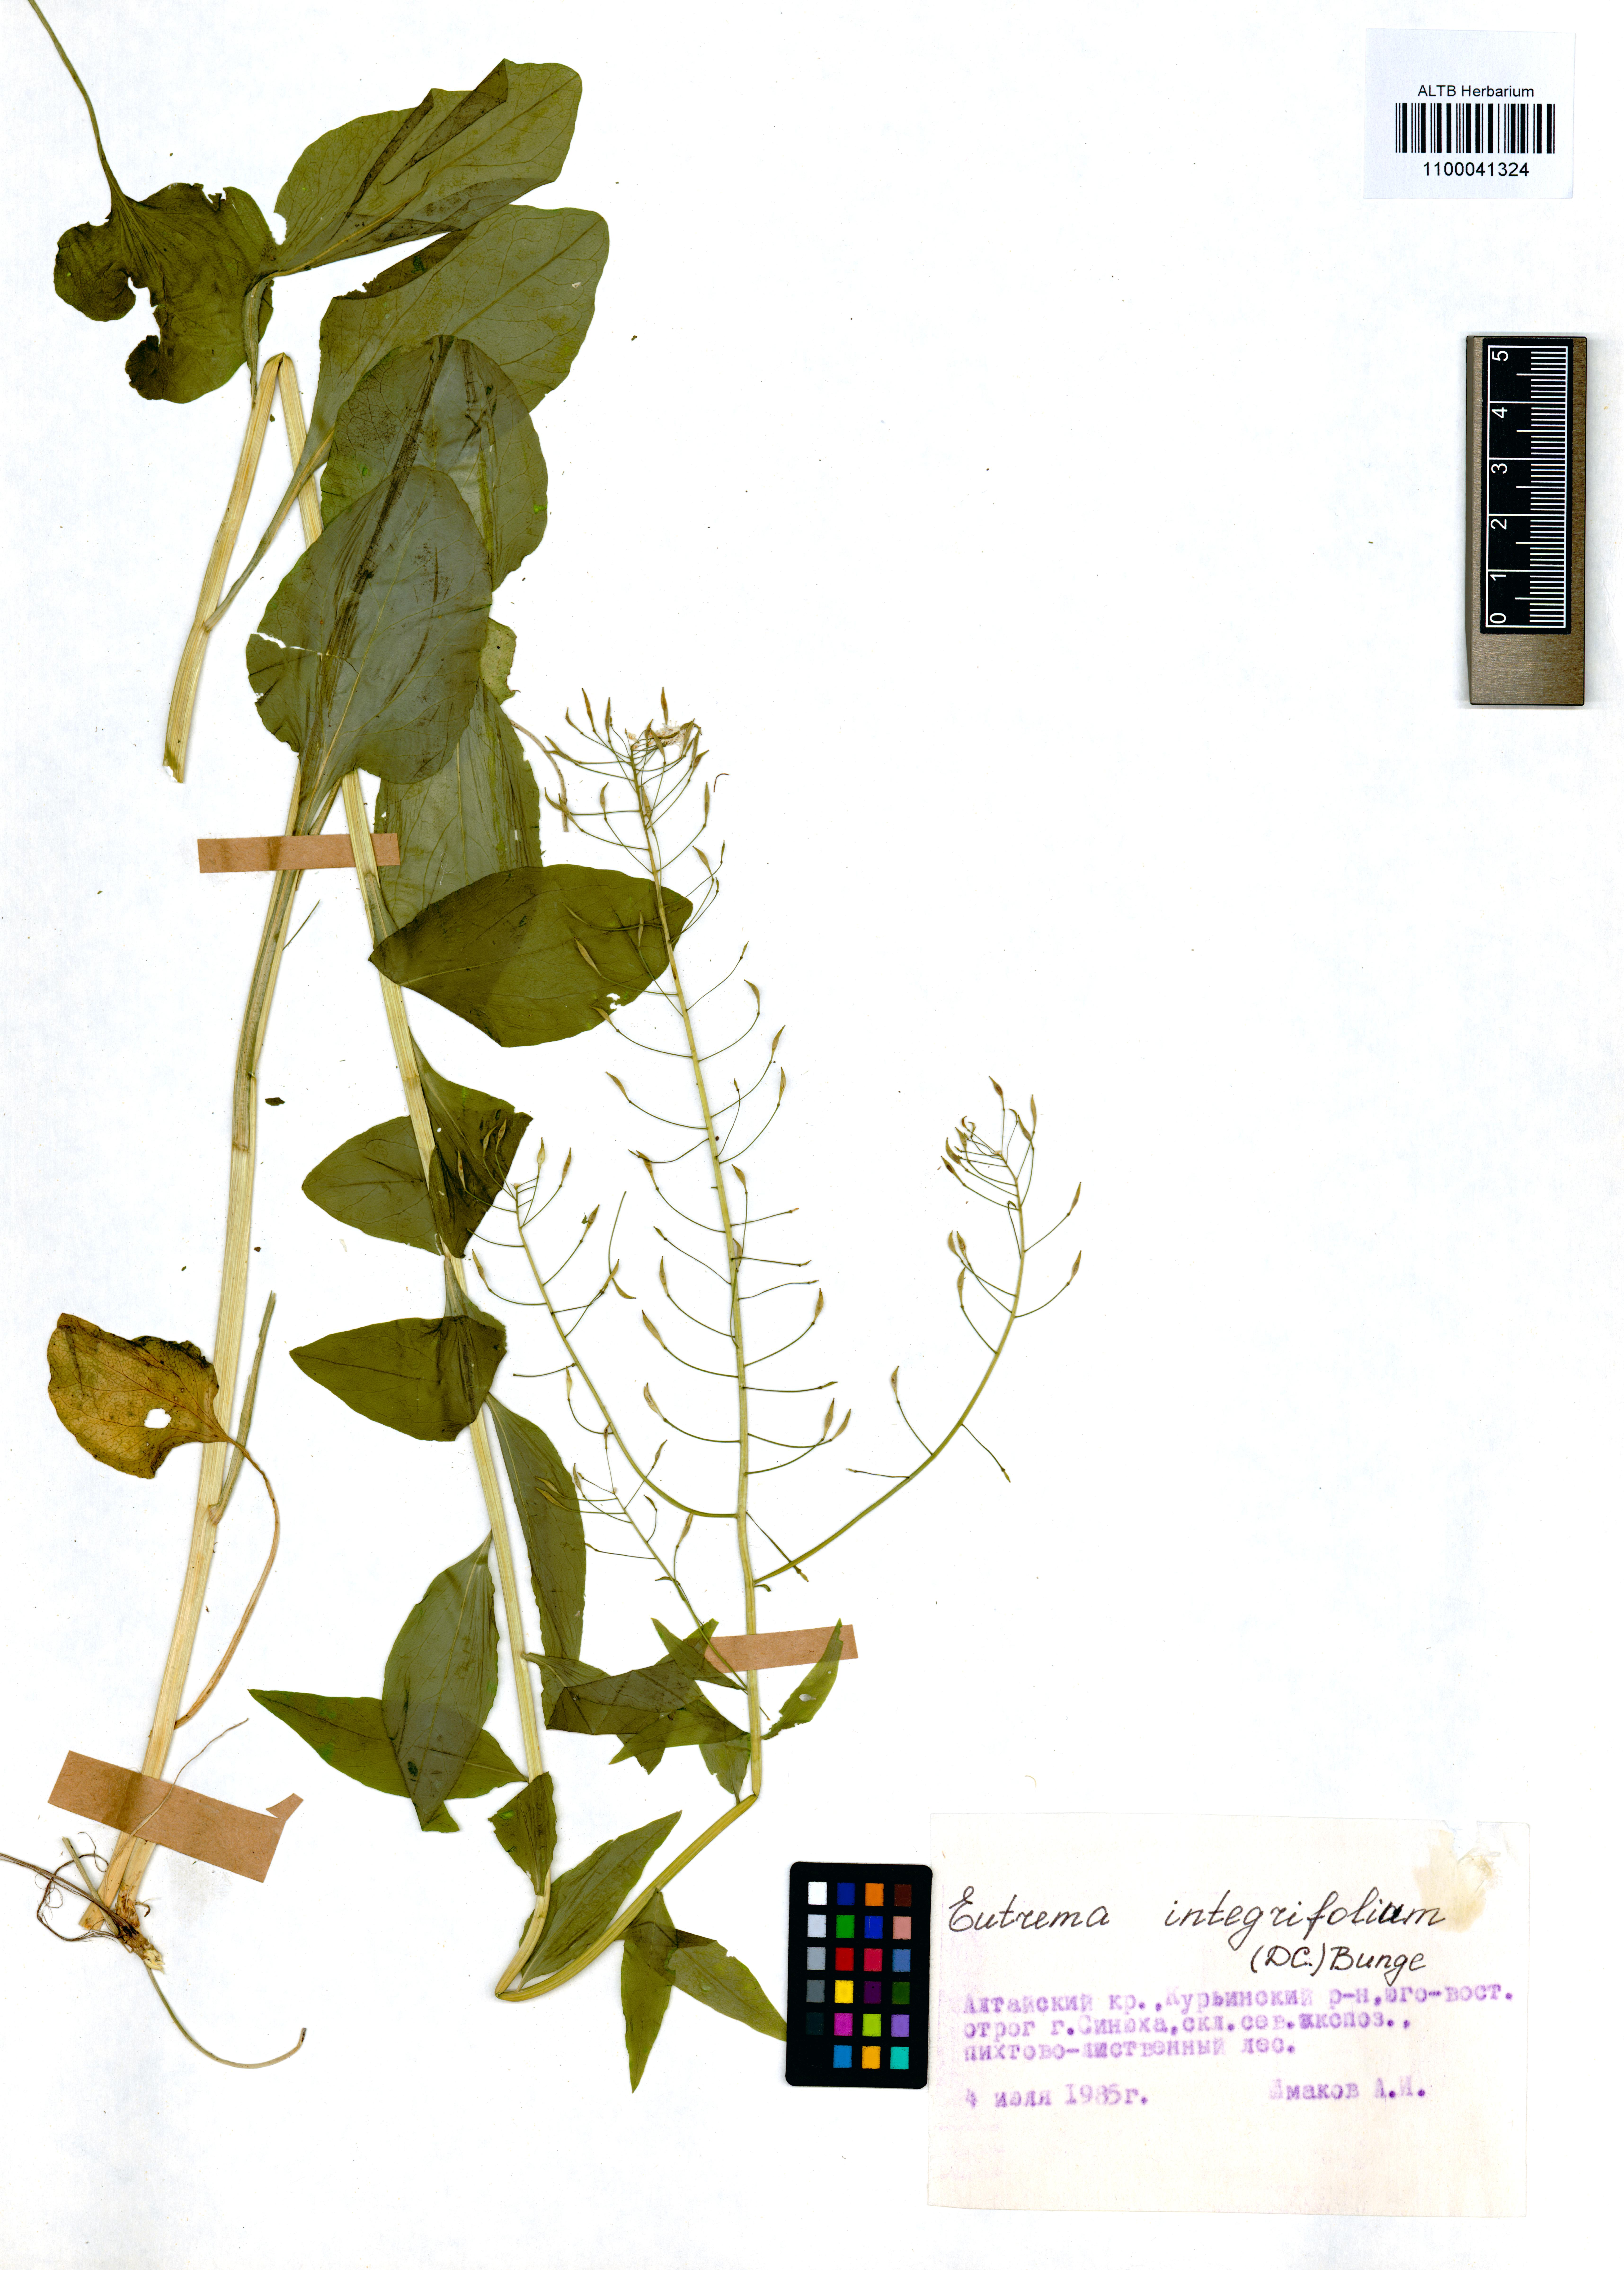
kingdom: Plantae
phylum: Tracheophyta
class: Magnoliopsida
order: Brassicales
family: Brassicaceae
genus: Eutrema
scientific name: Eutrema integrifolium
